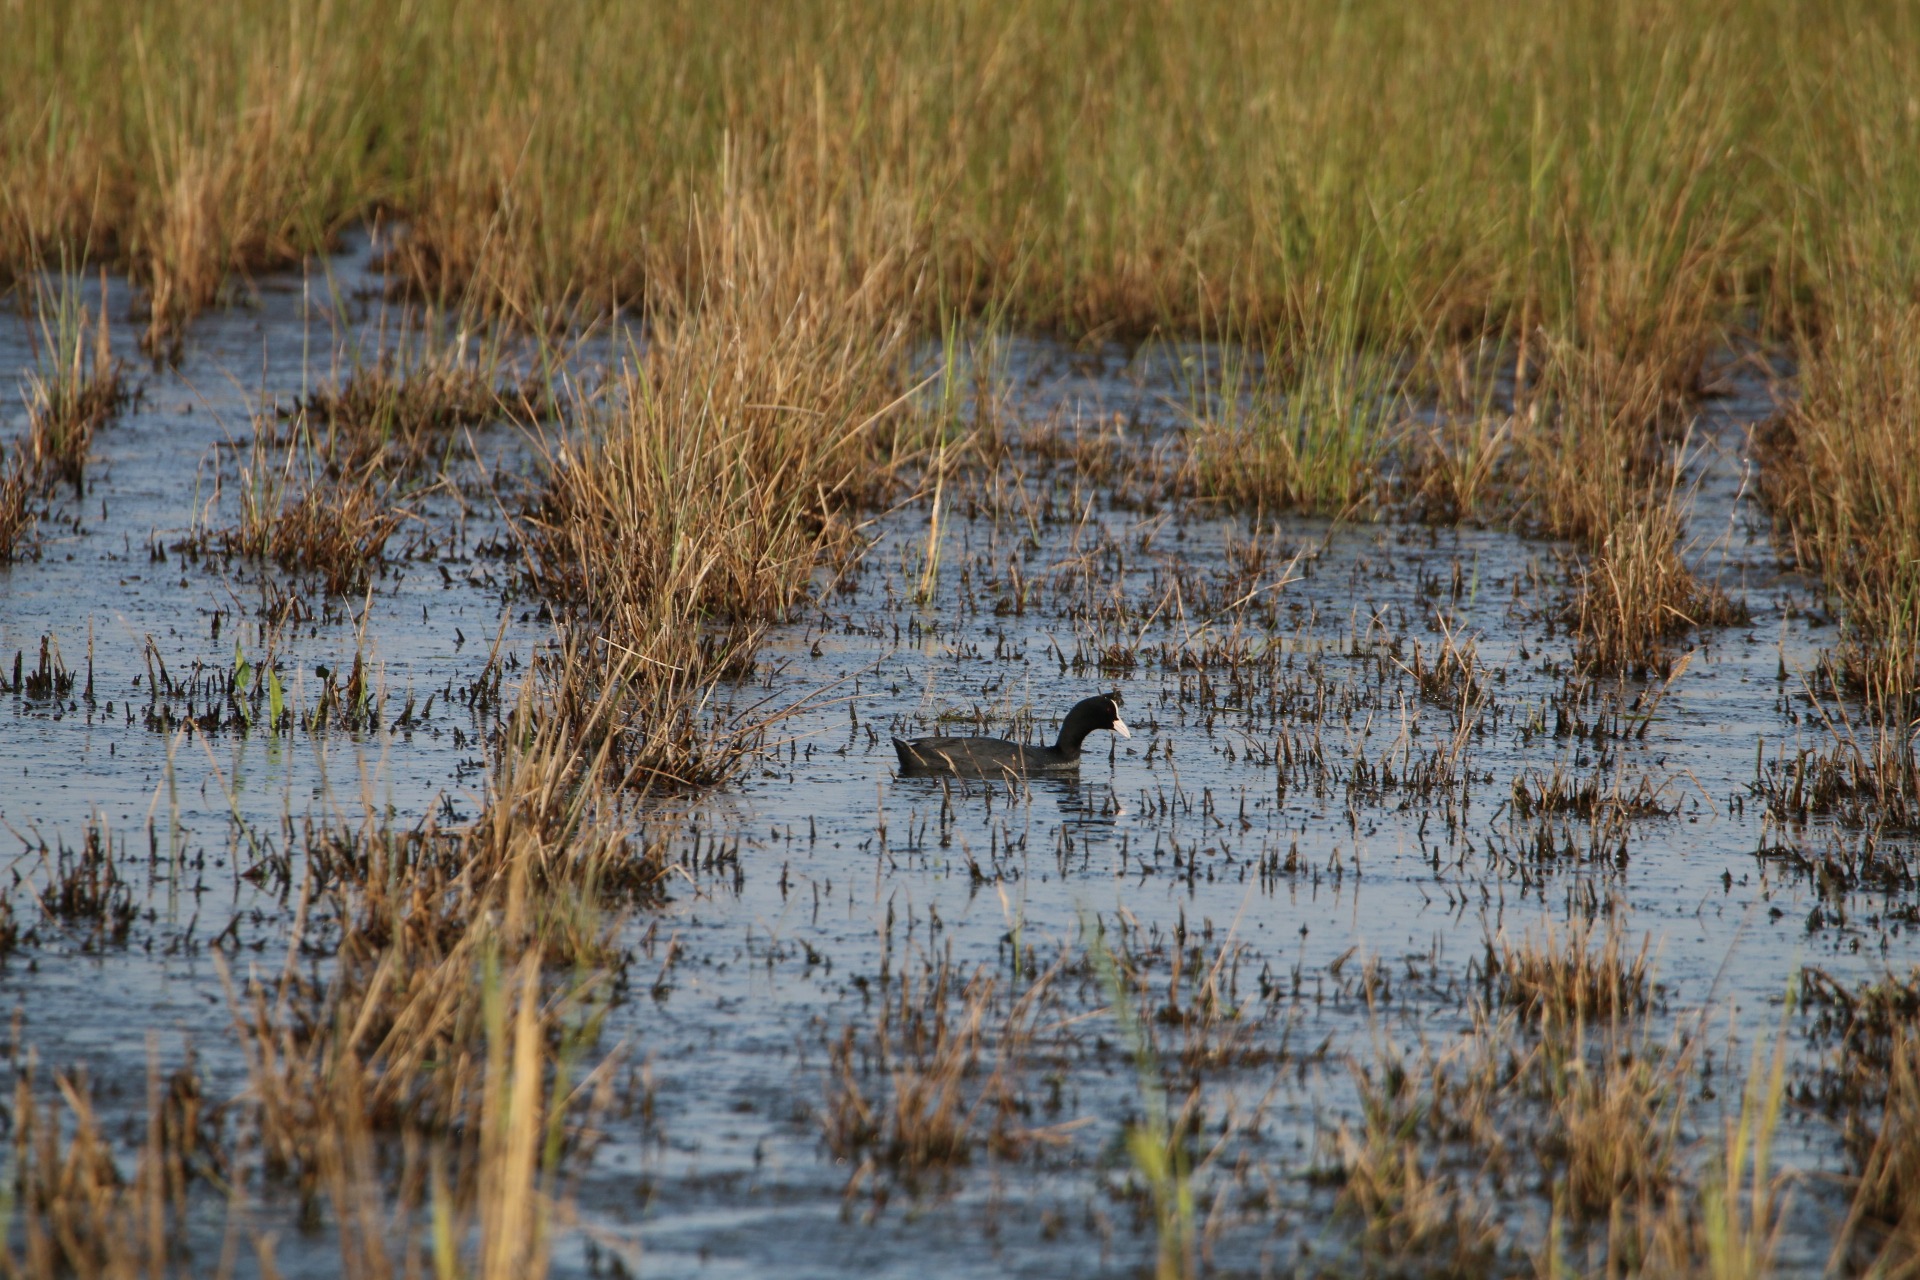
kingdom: Animalia
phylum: Chordata
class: Aves
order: Gruiformes
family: Rallidae
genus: Fulica
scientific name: Fulica atra
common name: Blishøne
